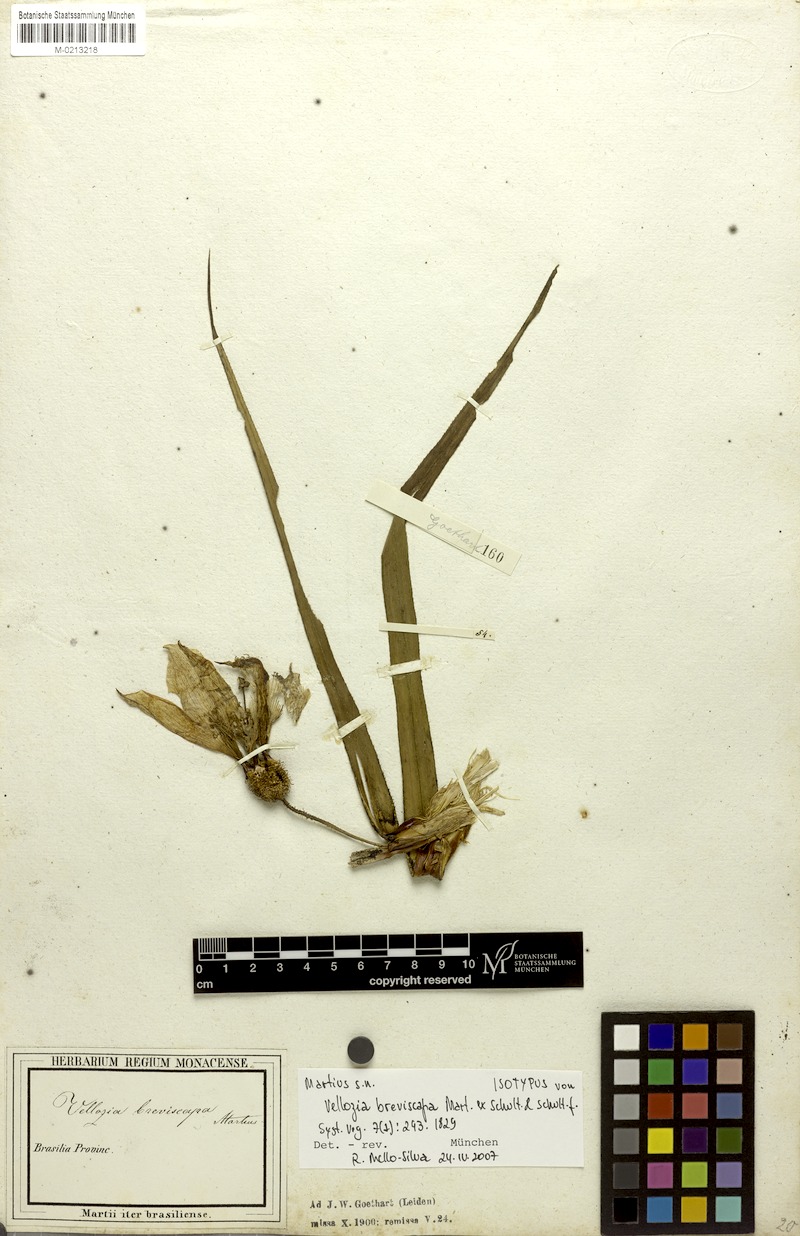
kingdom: Plantae
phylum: Tracheophyta
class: Liliopsida
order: Pandanales
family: Velloziaceae
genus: Vellozia
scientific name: Vellozia breviscapa
